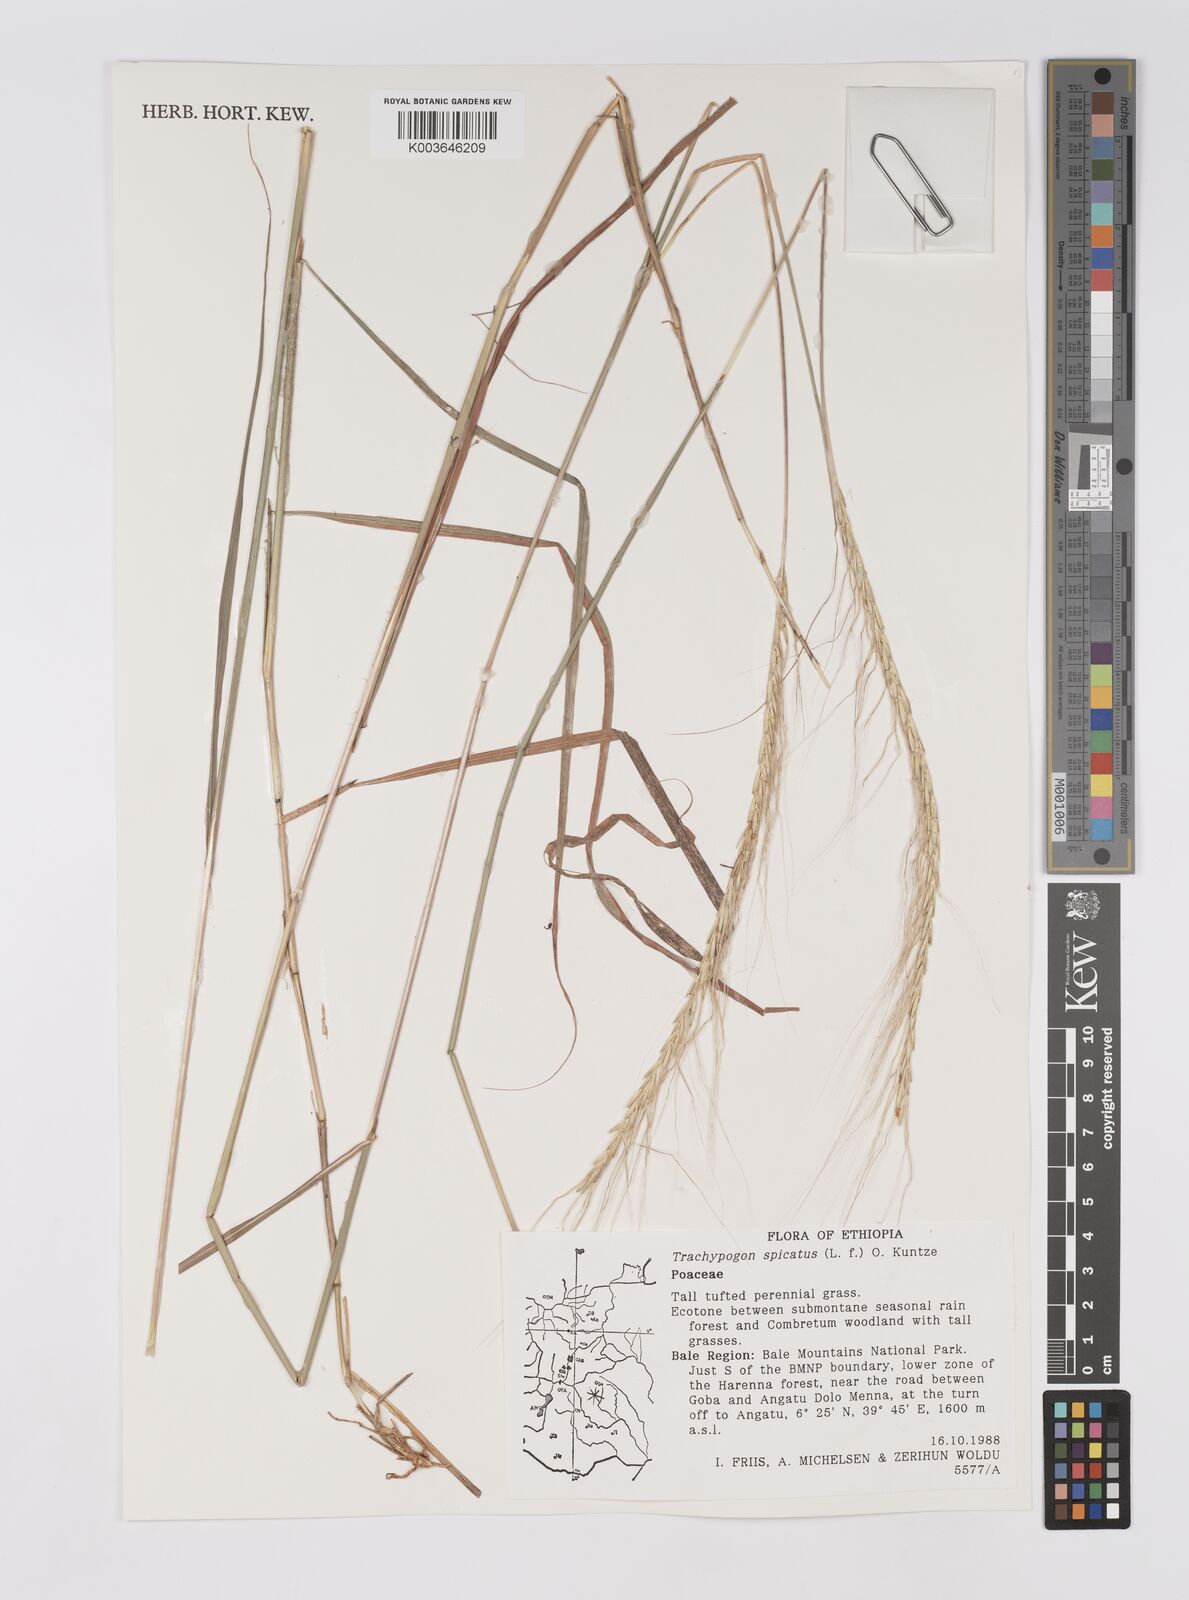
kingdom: Plantae
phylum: Tracheophyta
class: Liliopsida
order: Poales
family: Poaceae
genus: Trachypogon
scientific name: Trachypogon spicatus
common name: Crinkle-awn
